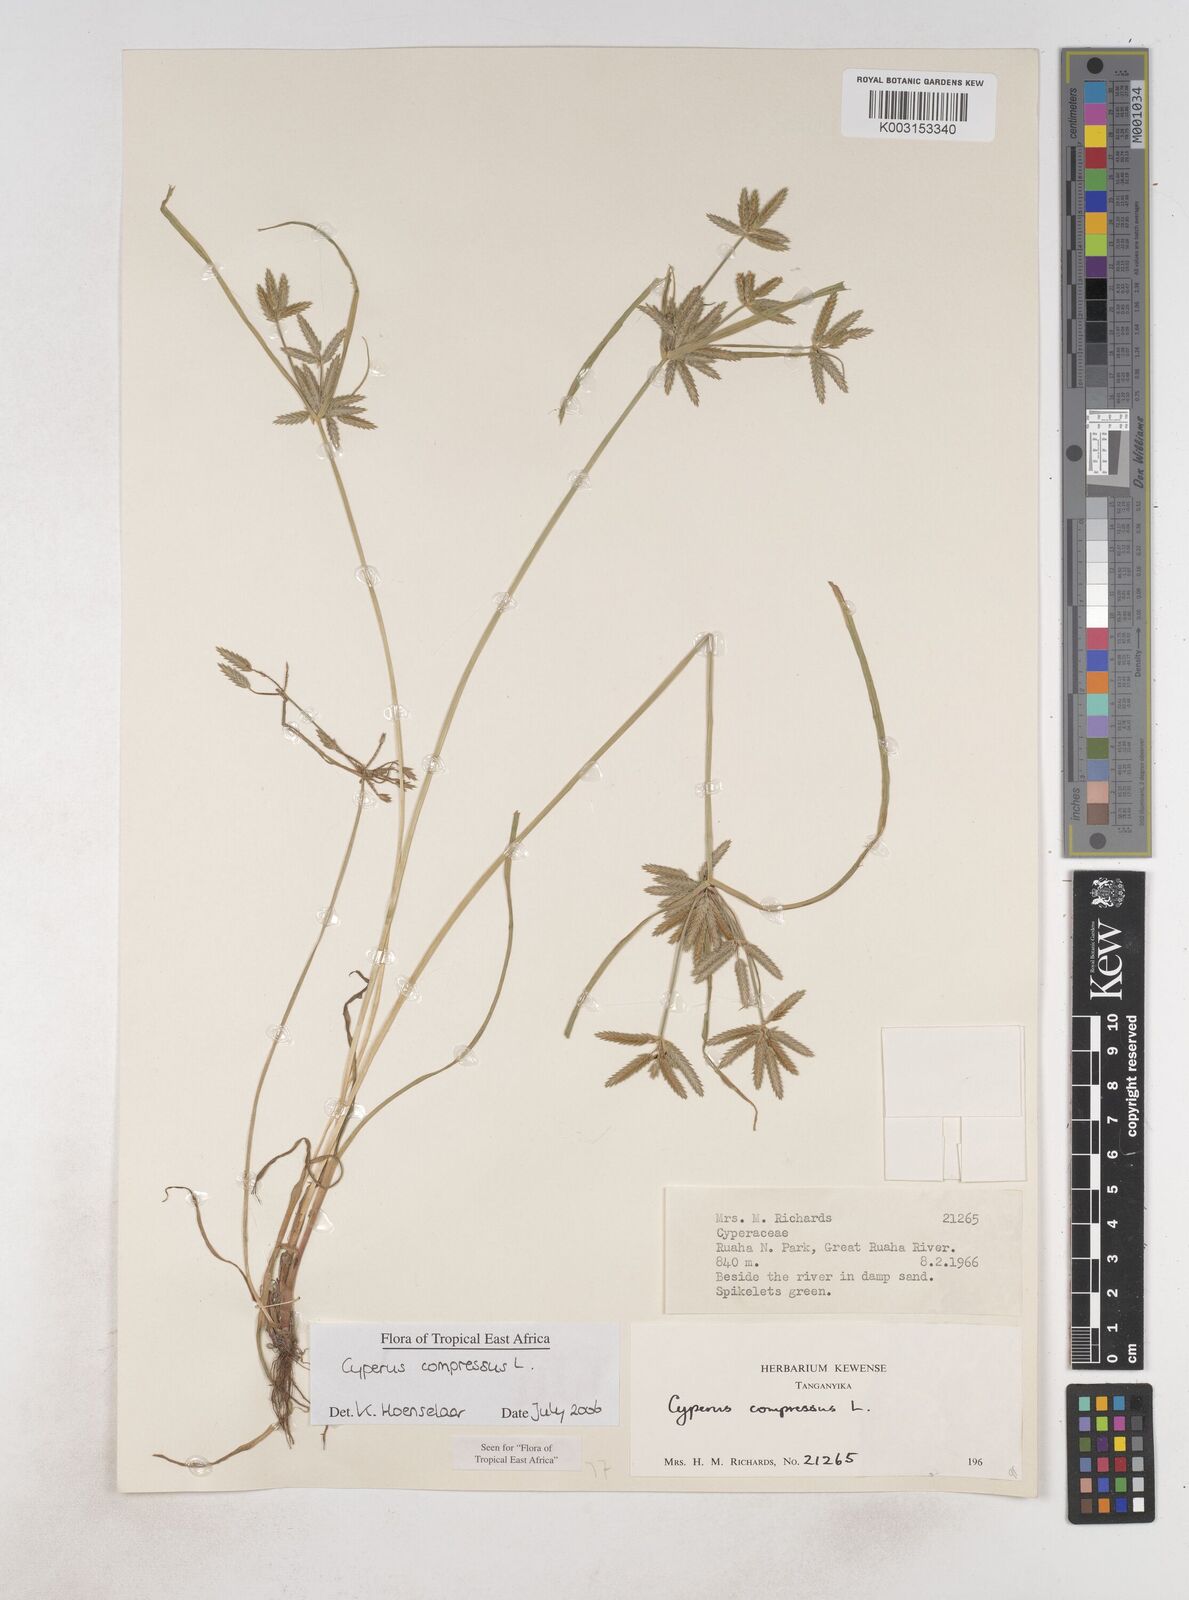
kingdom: Plantae
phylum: Tracheophyta
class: Liliopsida
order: Poales
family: Cyperaceae
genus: Cyperus
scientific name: Cyperus compressus
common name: Poorland flatsedge
